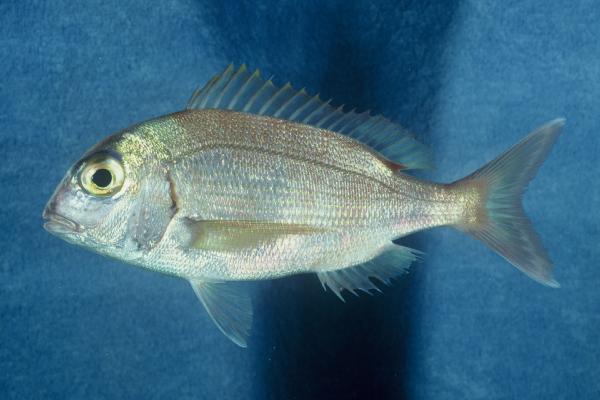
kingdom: Animalia
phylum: Chordata
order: Perciformes
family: Sparidae
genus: Pagrus
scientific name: Pagrus pagrus
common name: Red porgy
